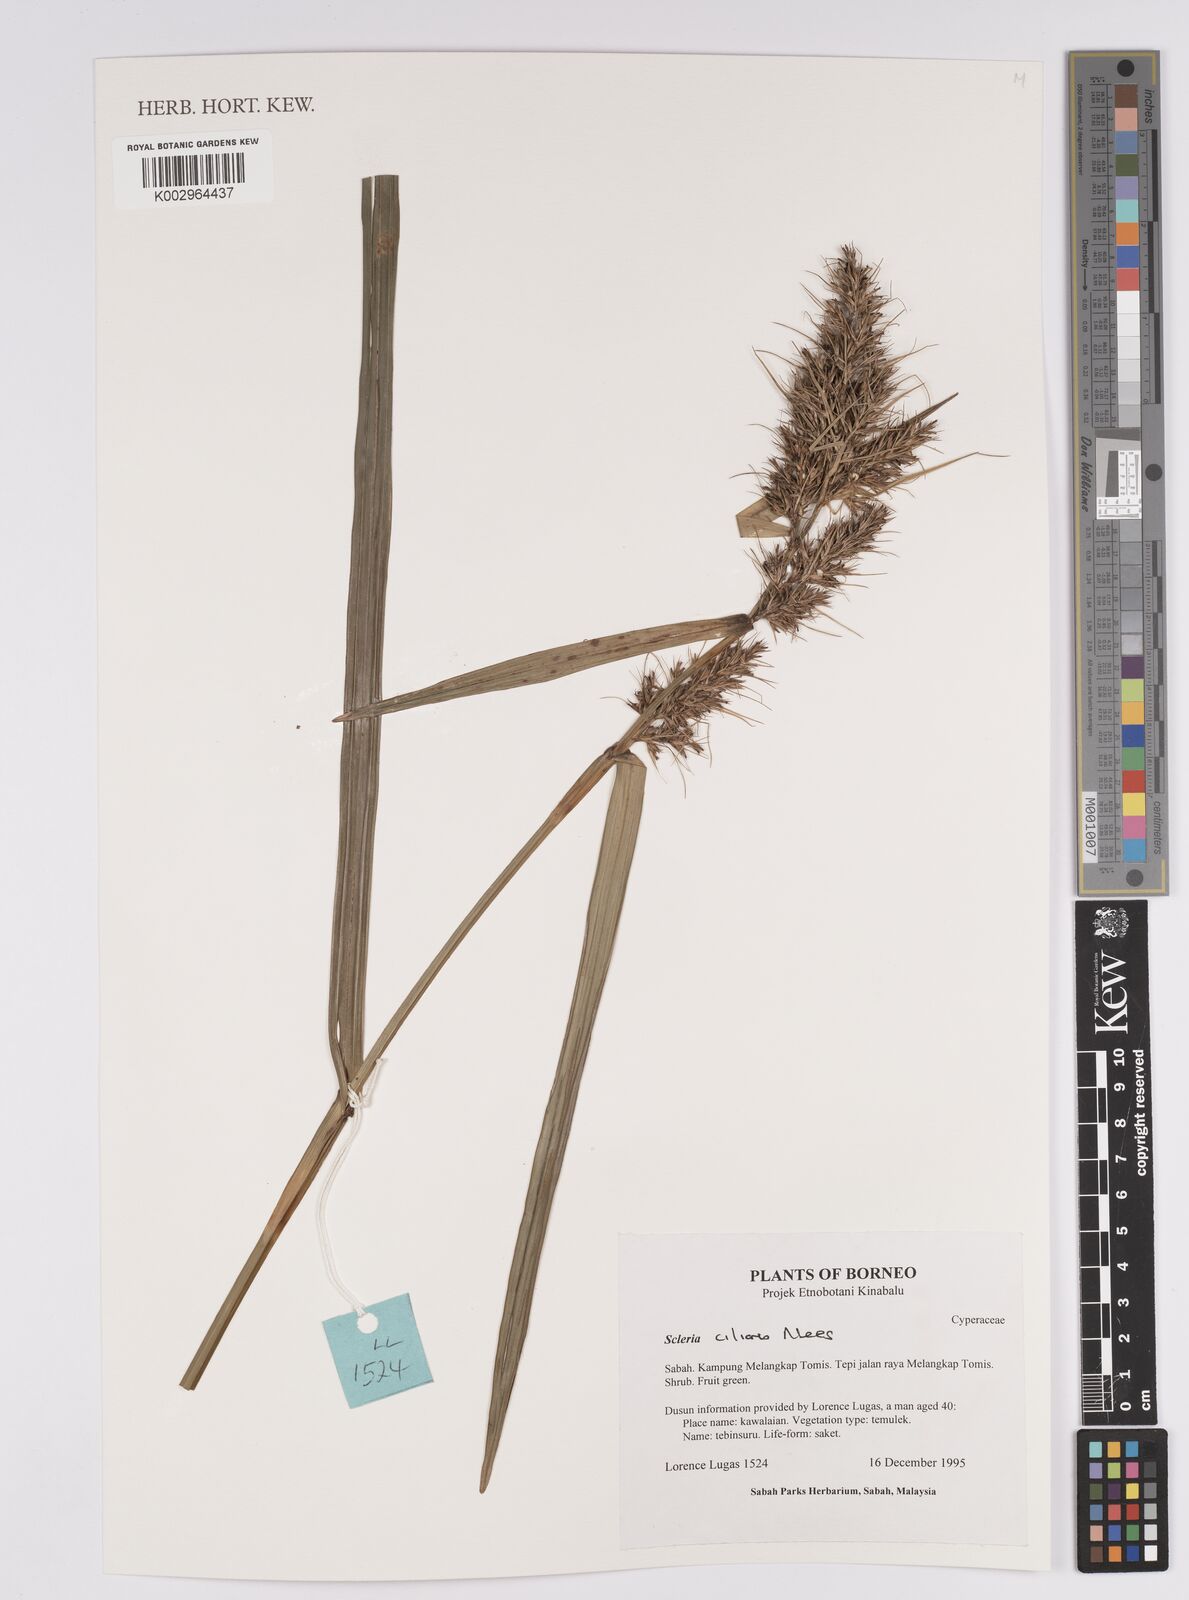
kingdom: Plantae
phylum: Tracheophyta
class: Liliopsida
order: Poales
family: Cyperaceae
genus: Scleria
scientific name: Scleria ciliaris
